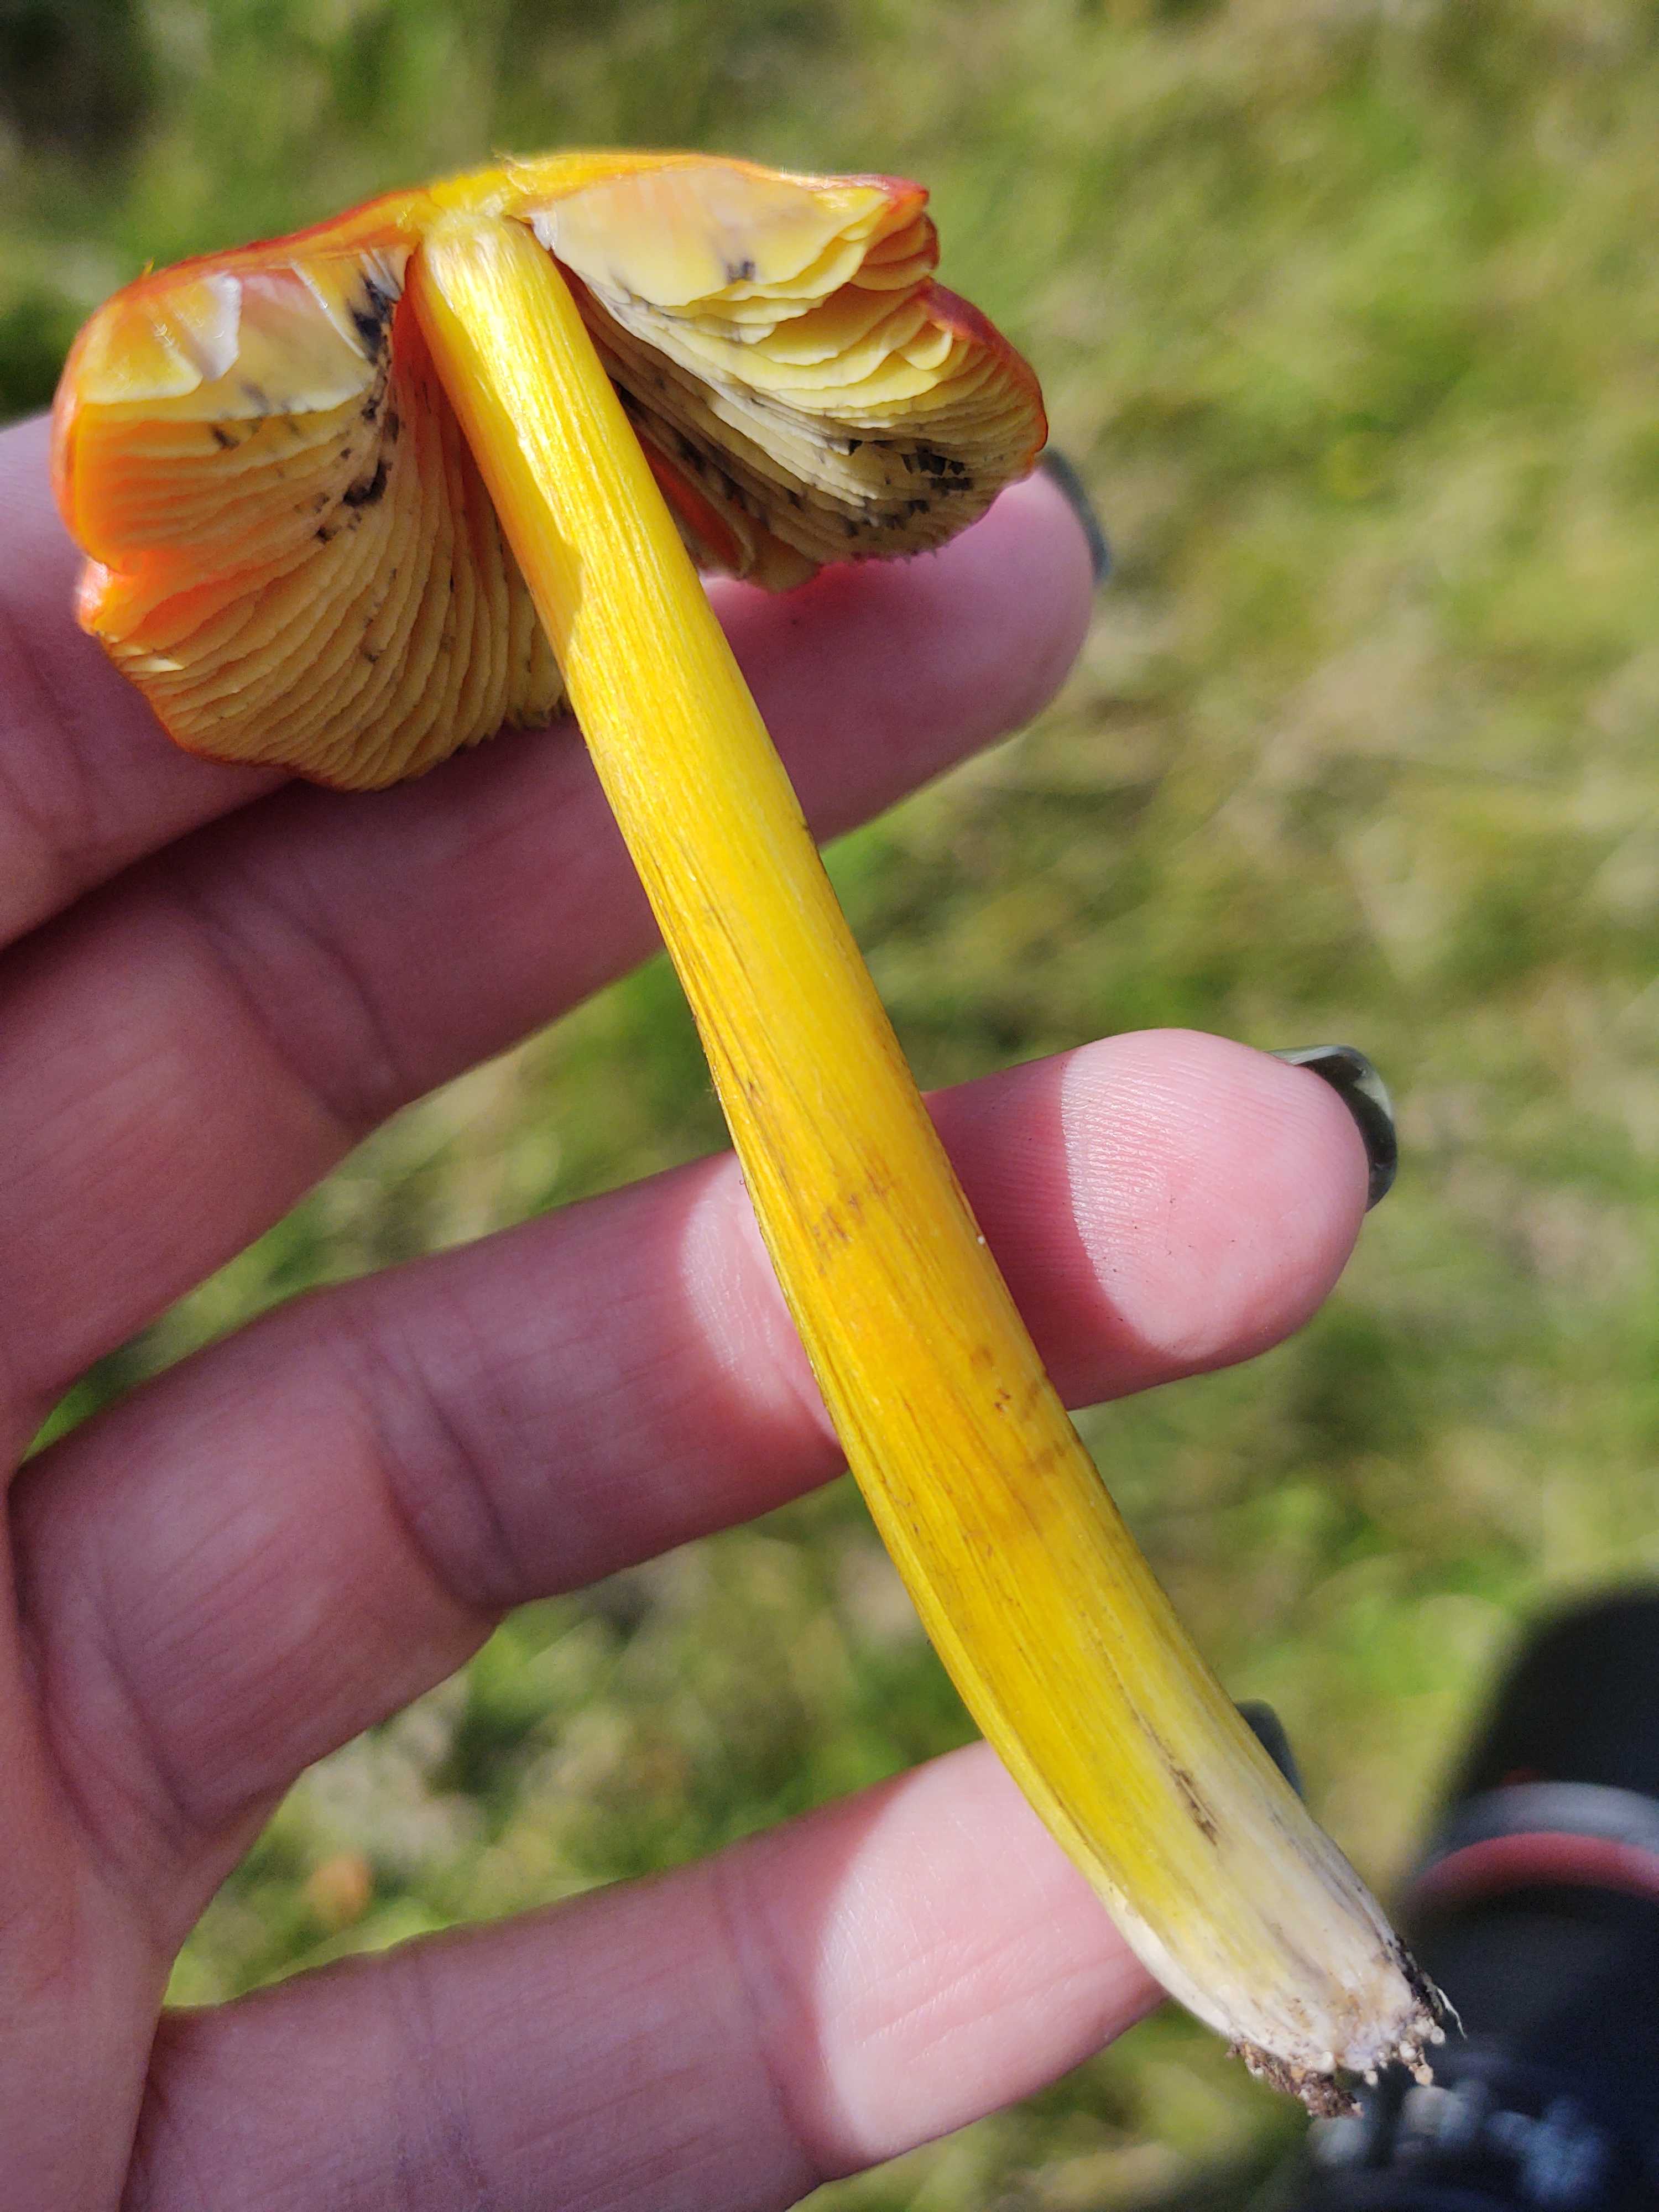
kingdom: Fungi
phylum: Basidiomycota
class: Agaricomycetes
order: Agaricales
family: Hygrophoraceae
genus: Hygrocybe
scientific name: Hygrocybe conica
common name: kegle-vokshat
